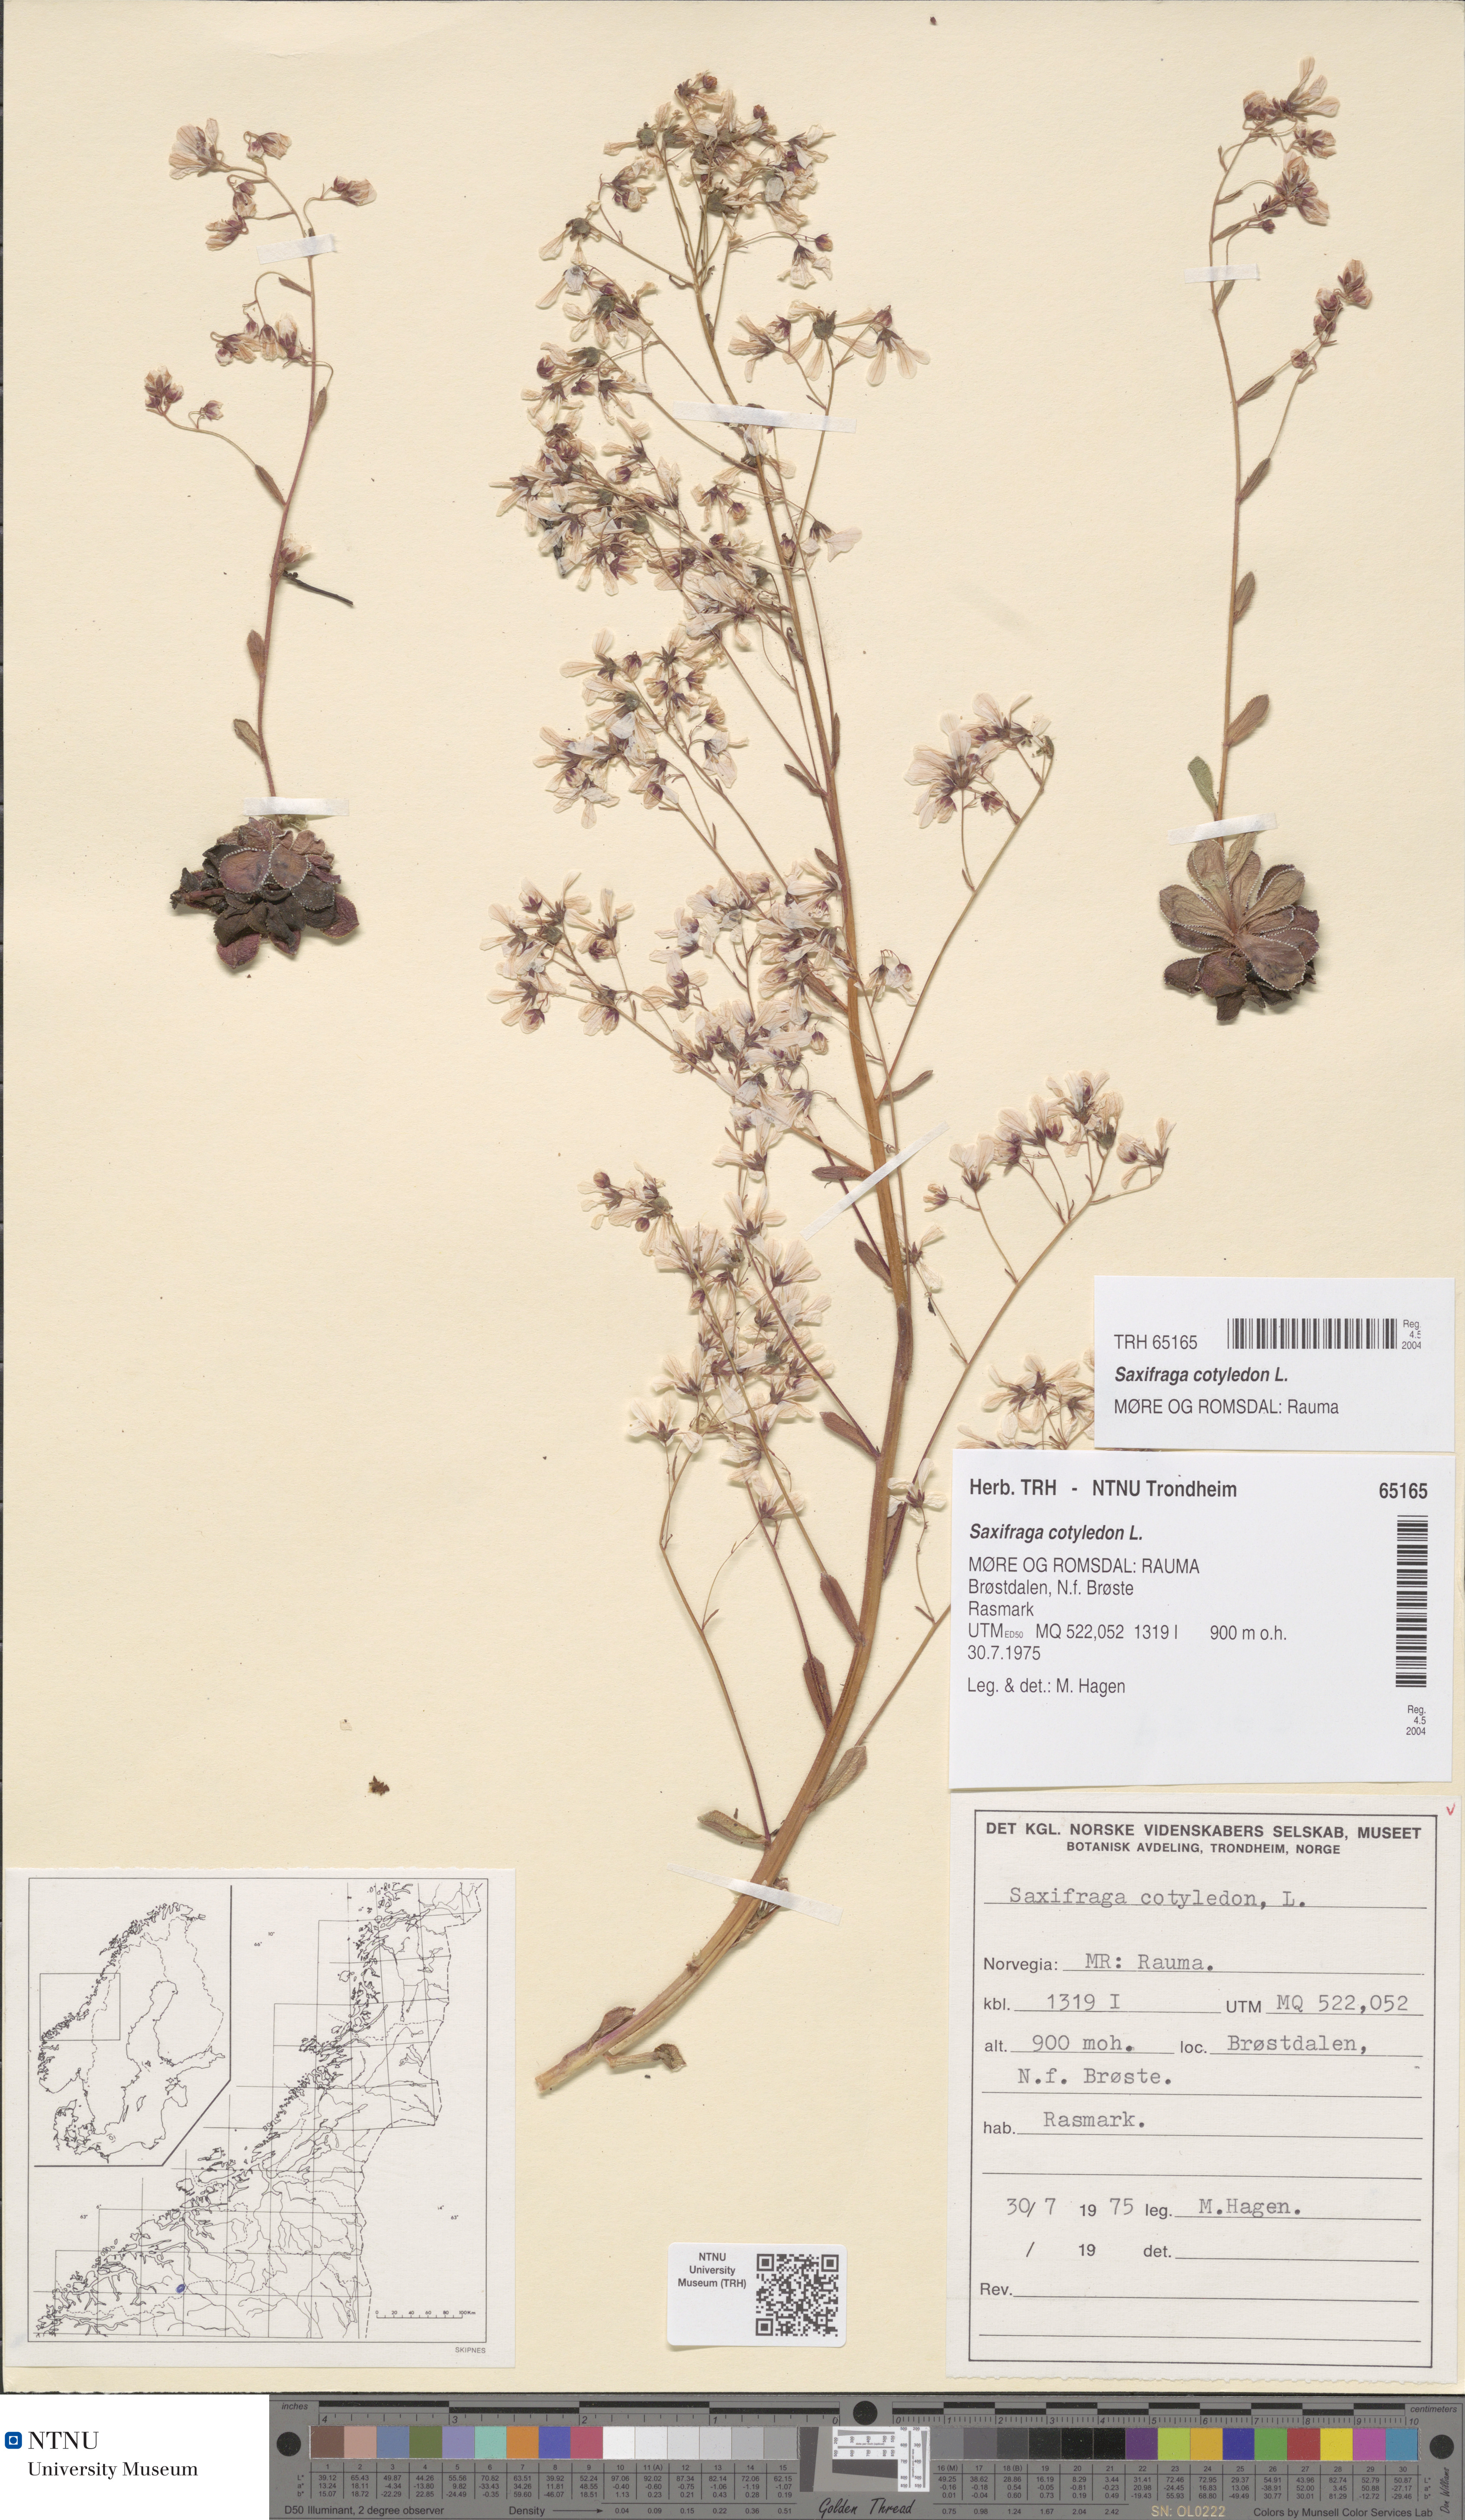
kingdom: Plantae
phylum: Tracheophyta
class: Magnoliopsida
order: Saxifragales
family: Saxifragaceae
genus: Saxifraga
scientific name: Saxifraga cotyledon
